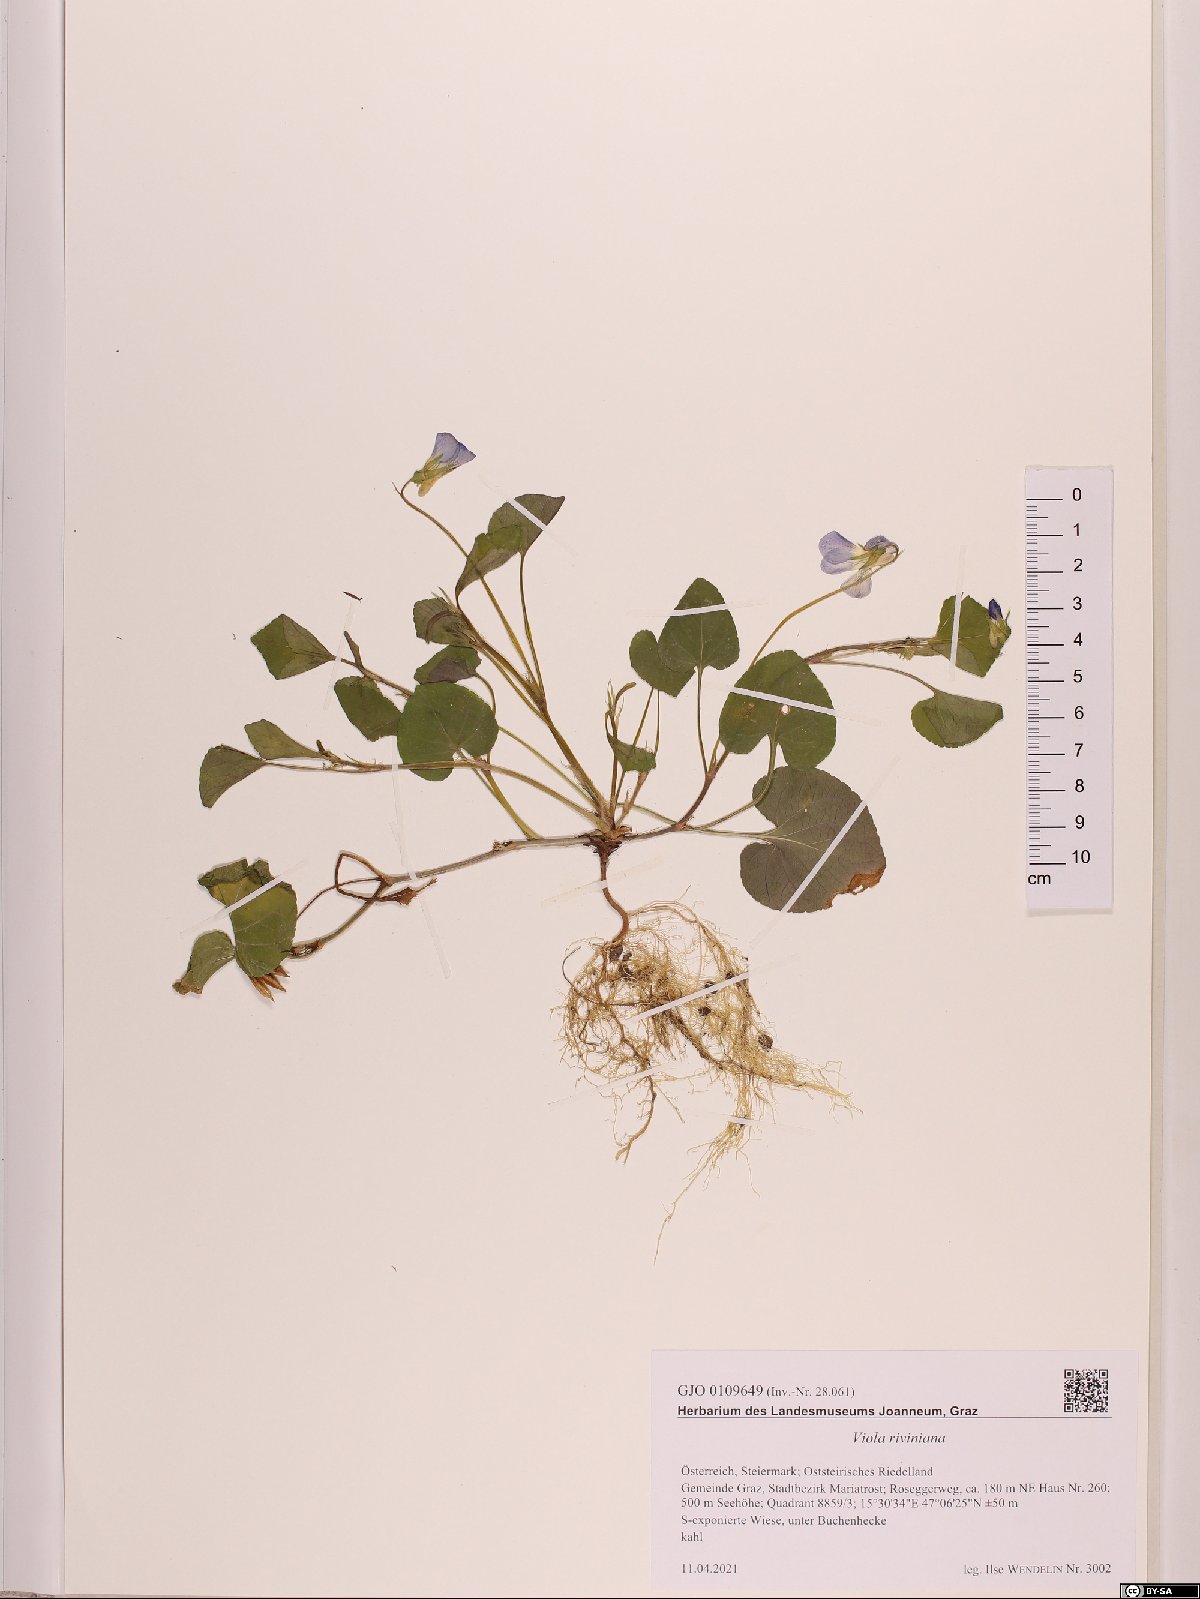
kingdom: Plantae
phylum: Tracheophyta
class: Magnoliopsida
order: Malpighiales
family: Violaceae
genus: Viola
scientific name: Viola riviniana
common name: Common dog-violet
